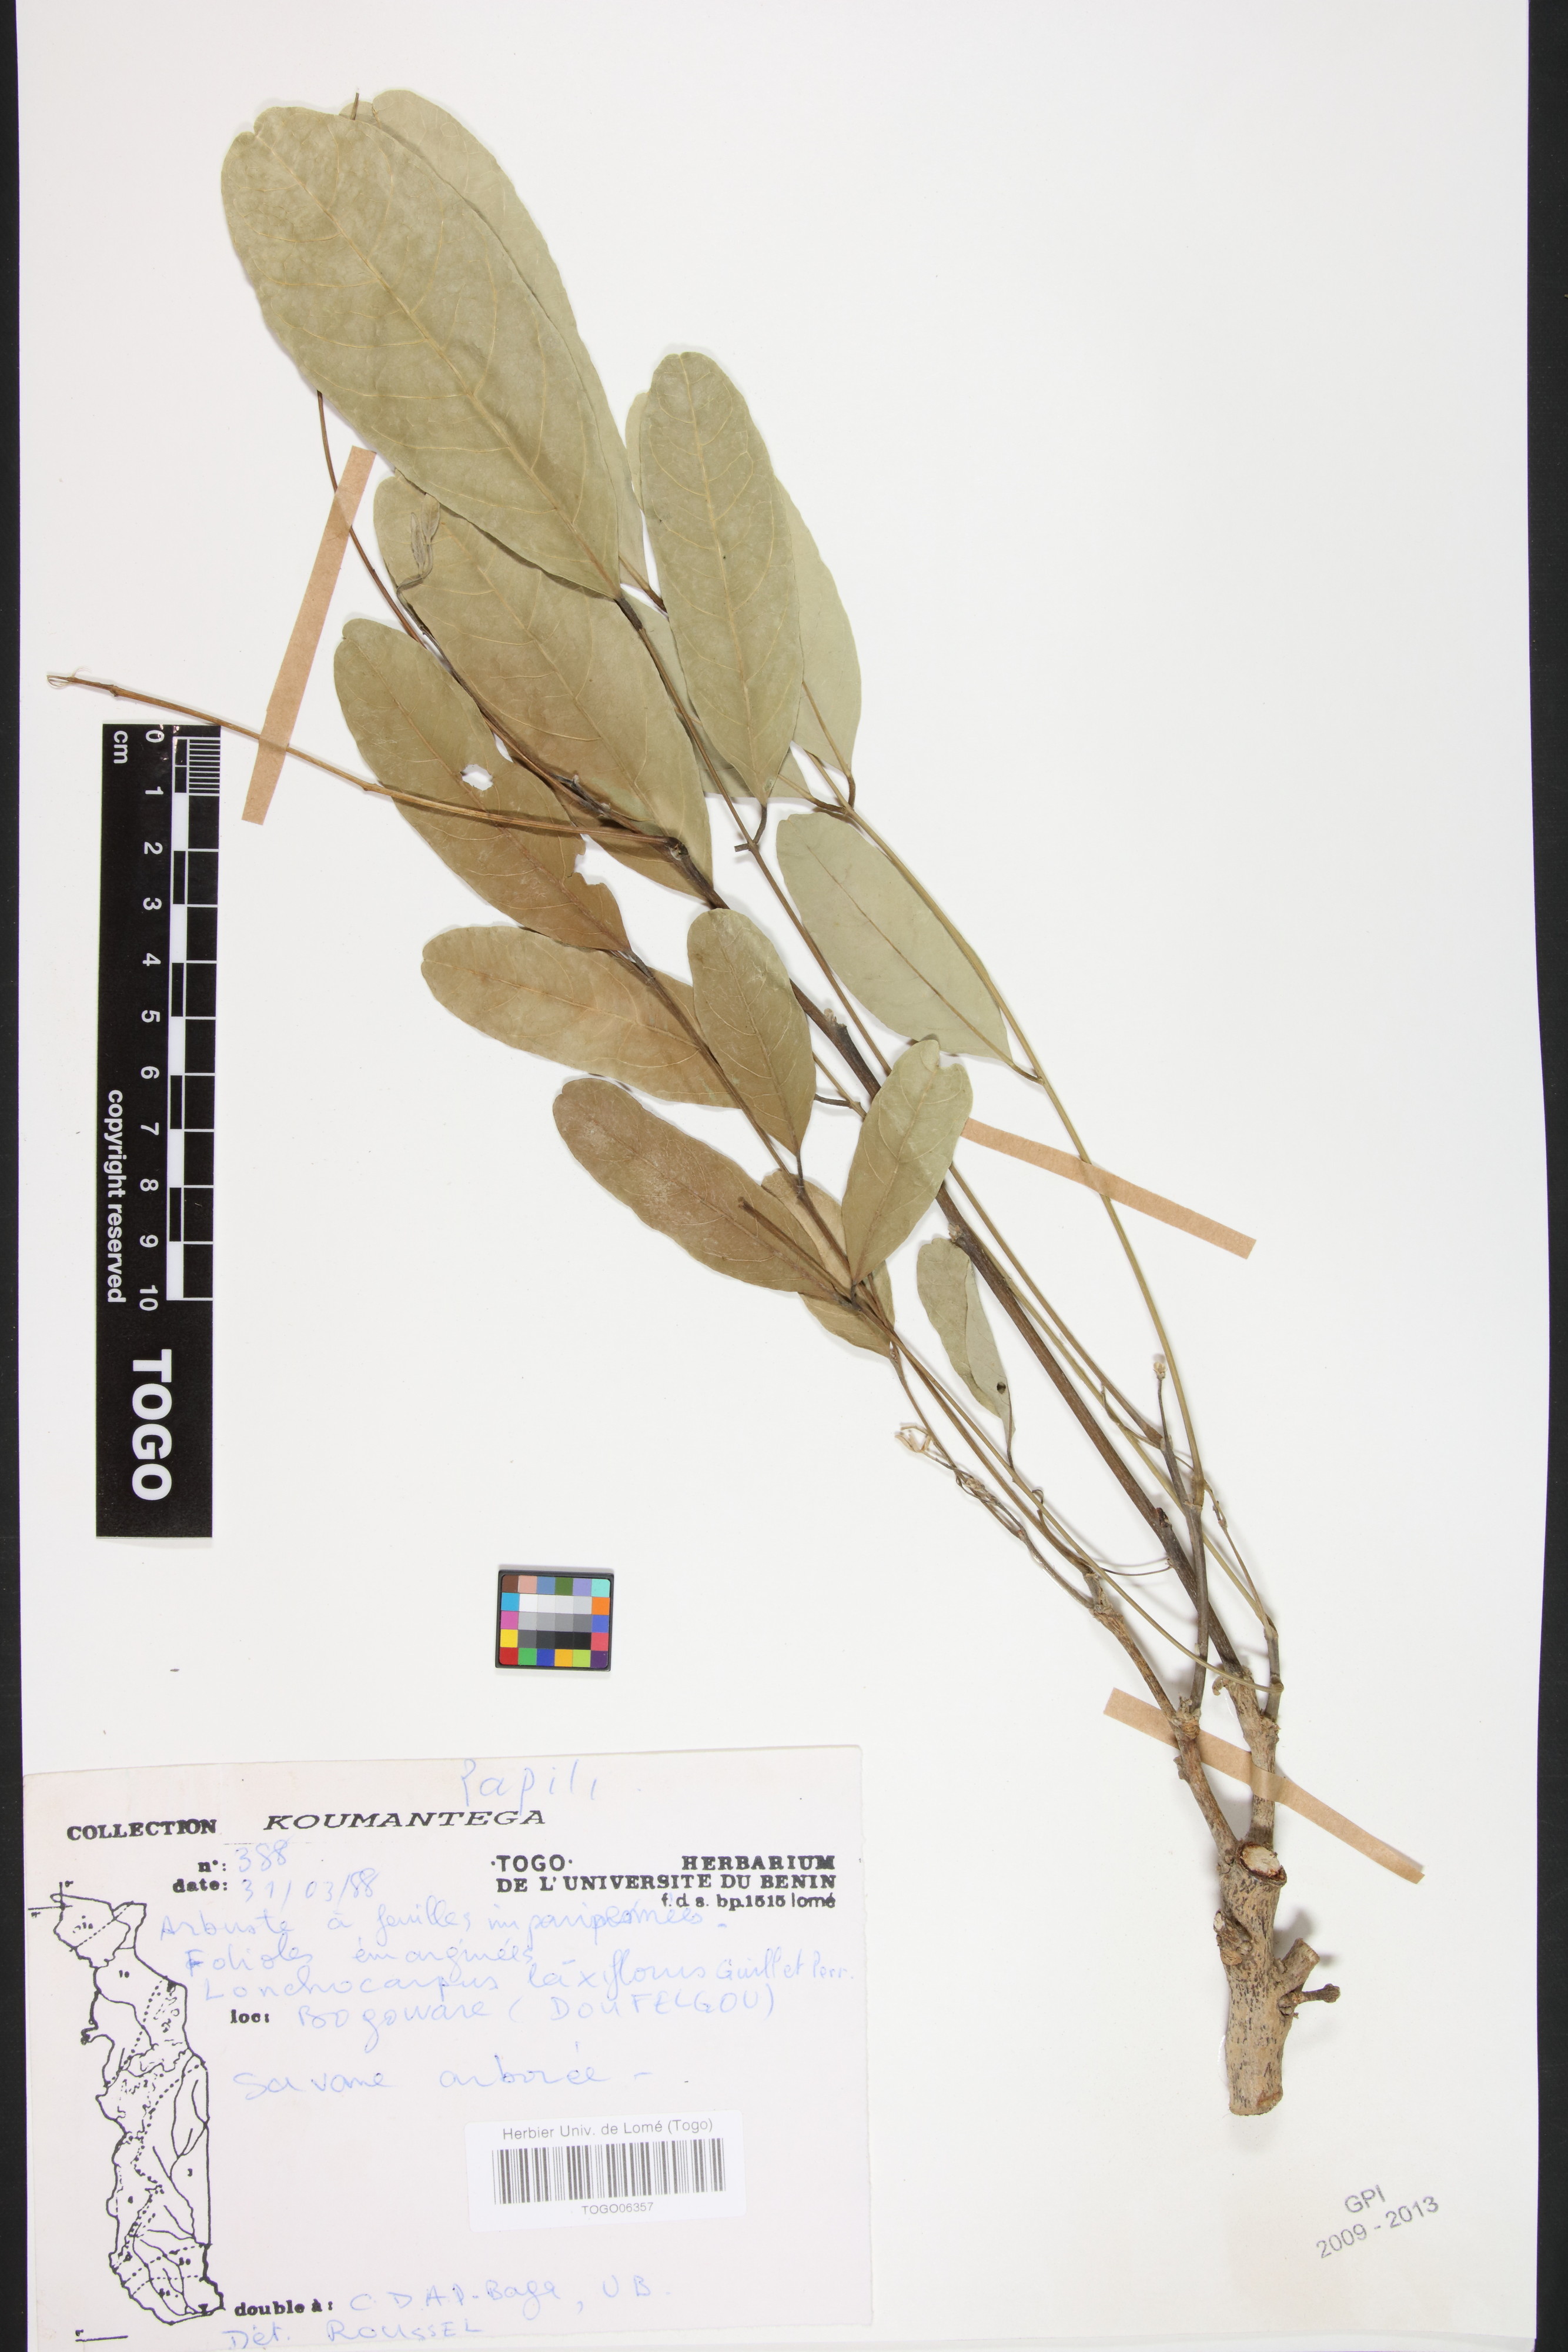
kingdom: Plantae
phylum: Tracheophyta
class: Magnoliopsida
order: Fabales
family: Fabaceae
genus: Philenoptera
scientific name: Philenoptera laxiflora
